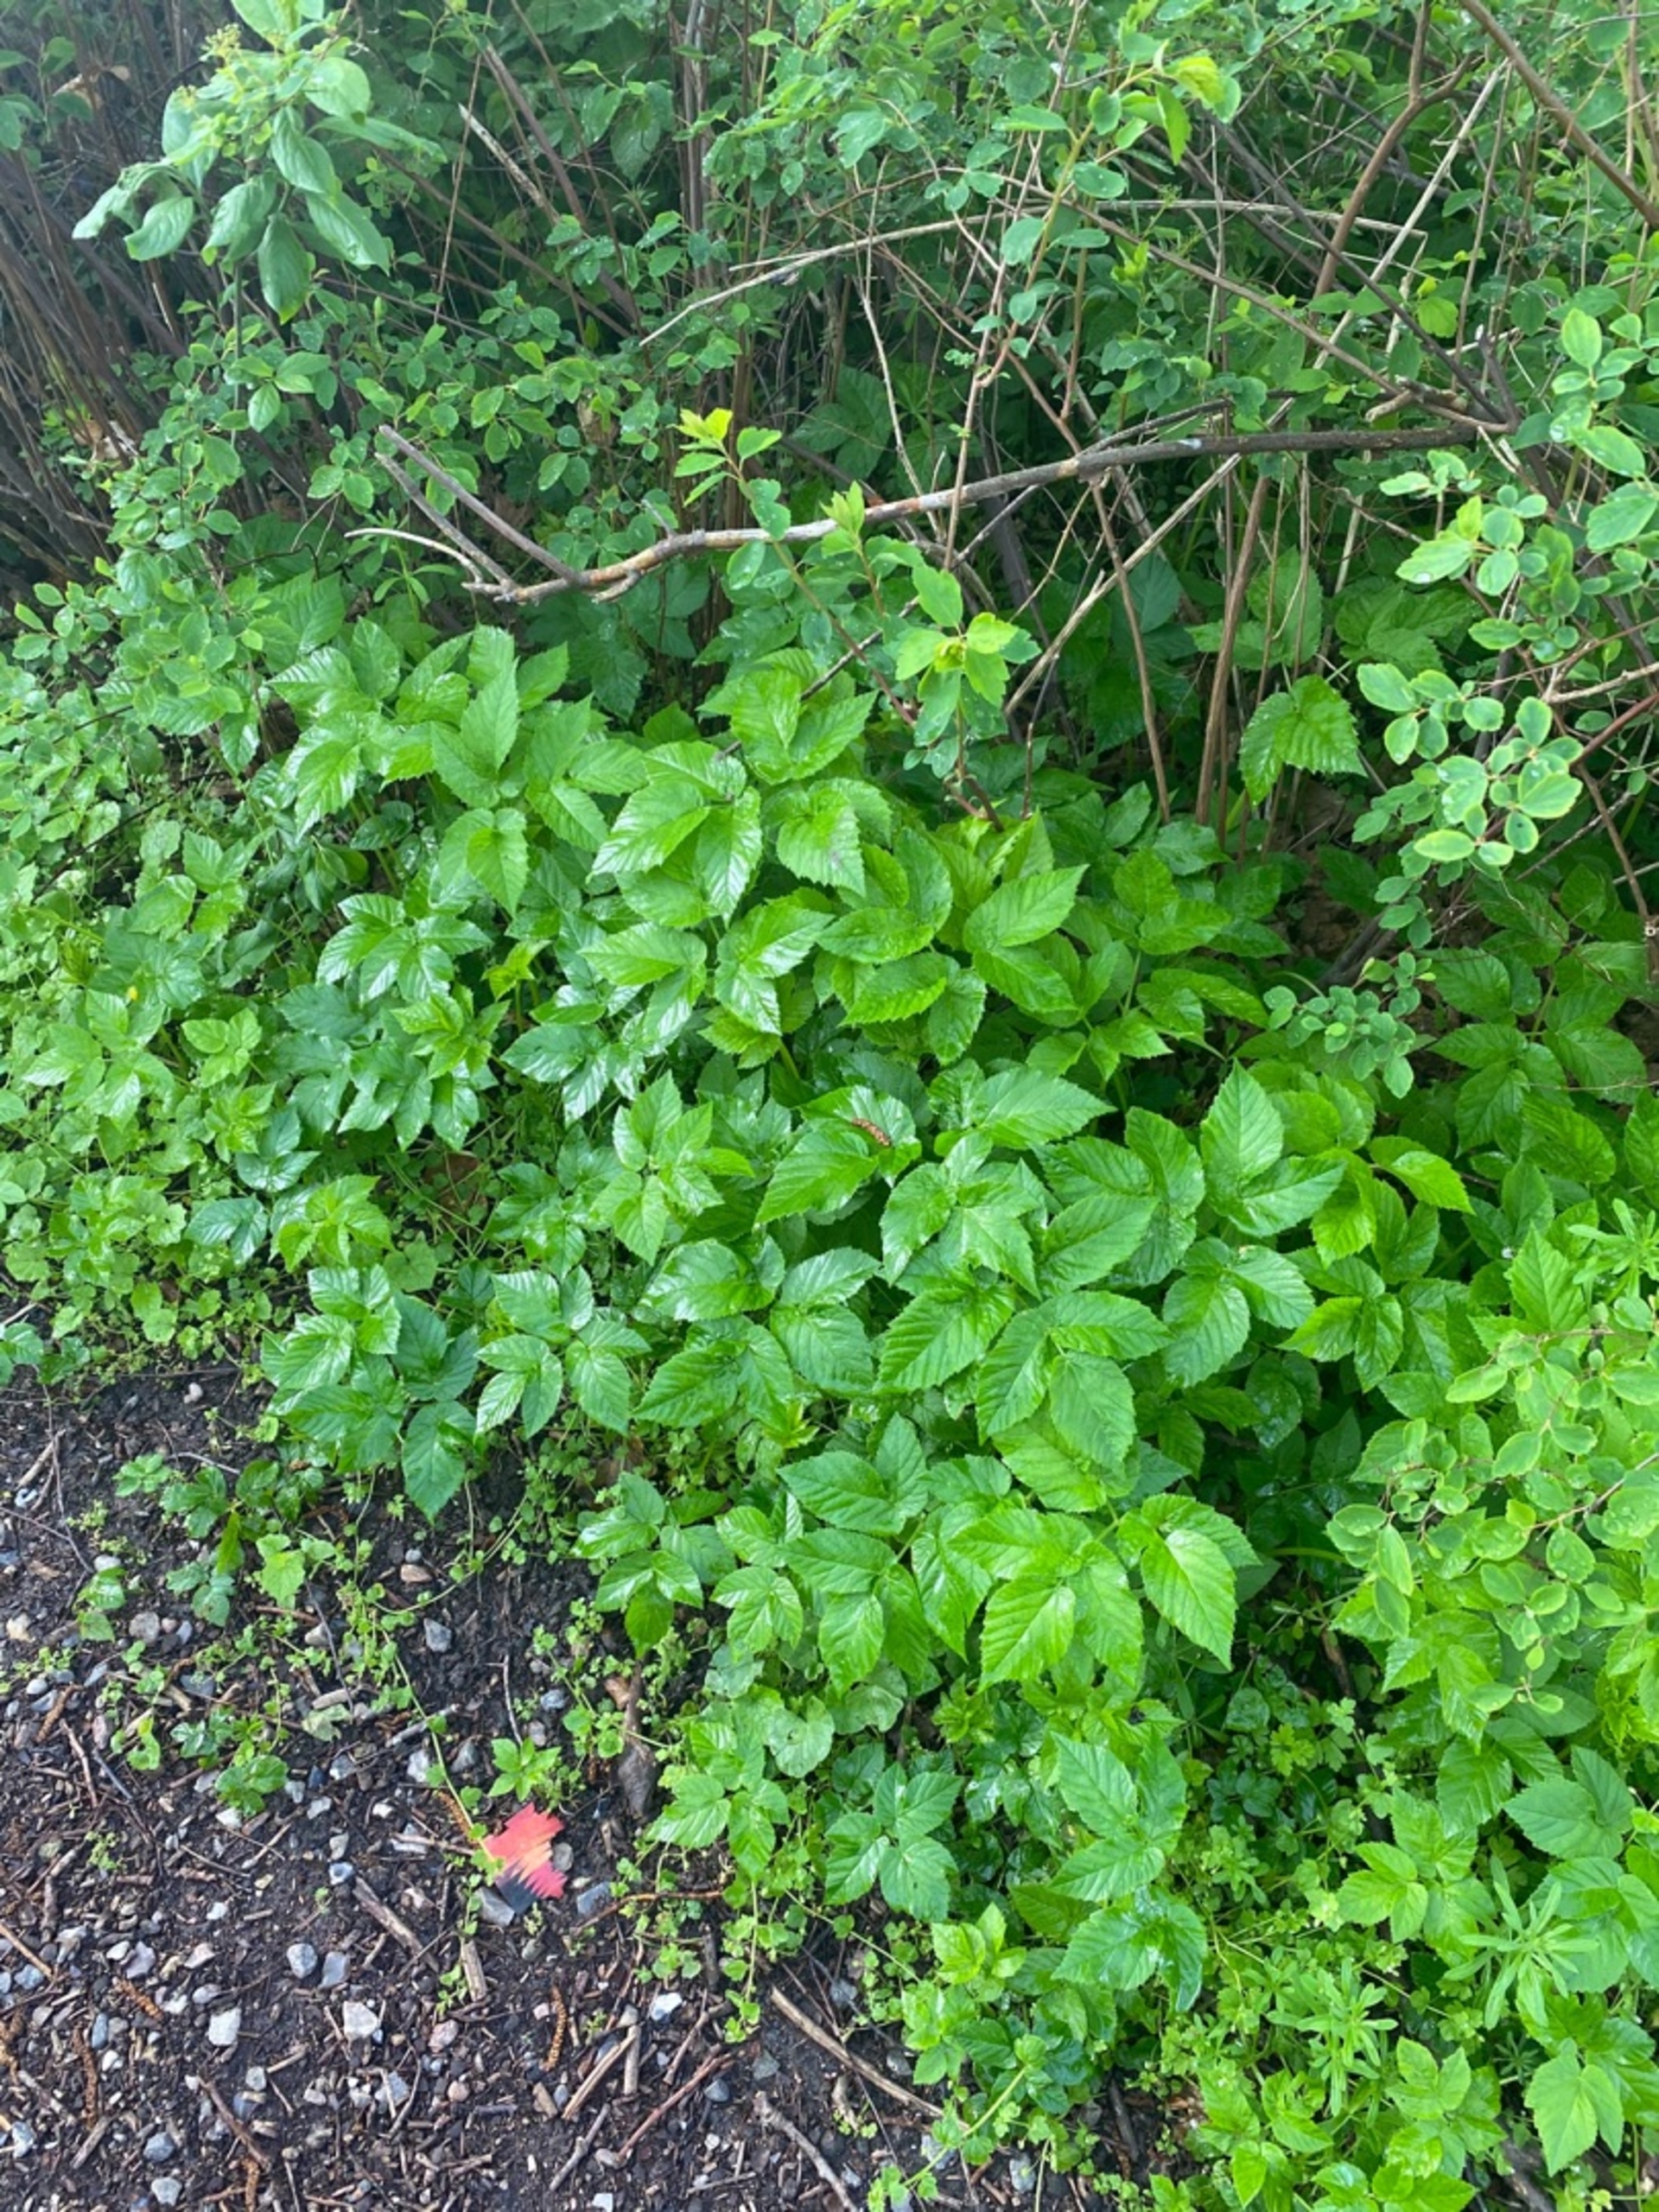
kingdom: Plantae
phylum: Tracheophyta
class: Magnoliopsida
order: Apiales
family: Apiaceae
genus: Aegopodium
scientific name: Aegopodium podagraria
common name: Skvalderkål
